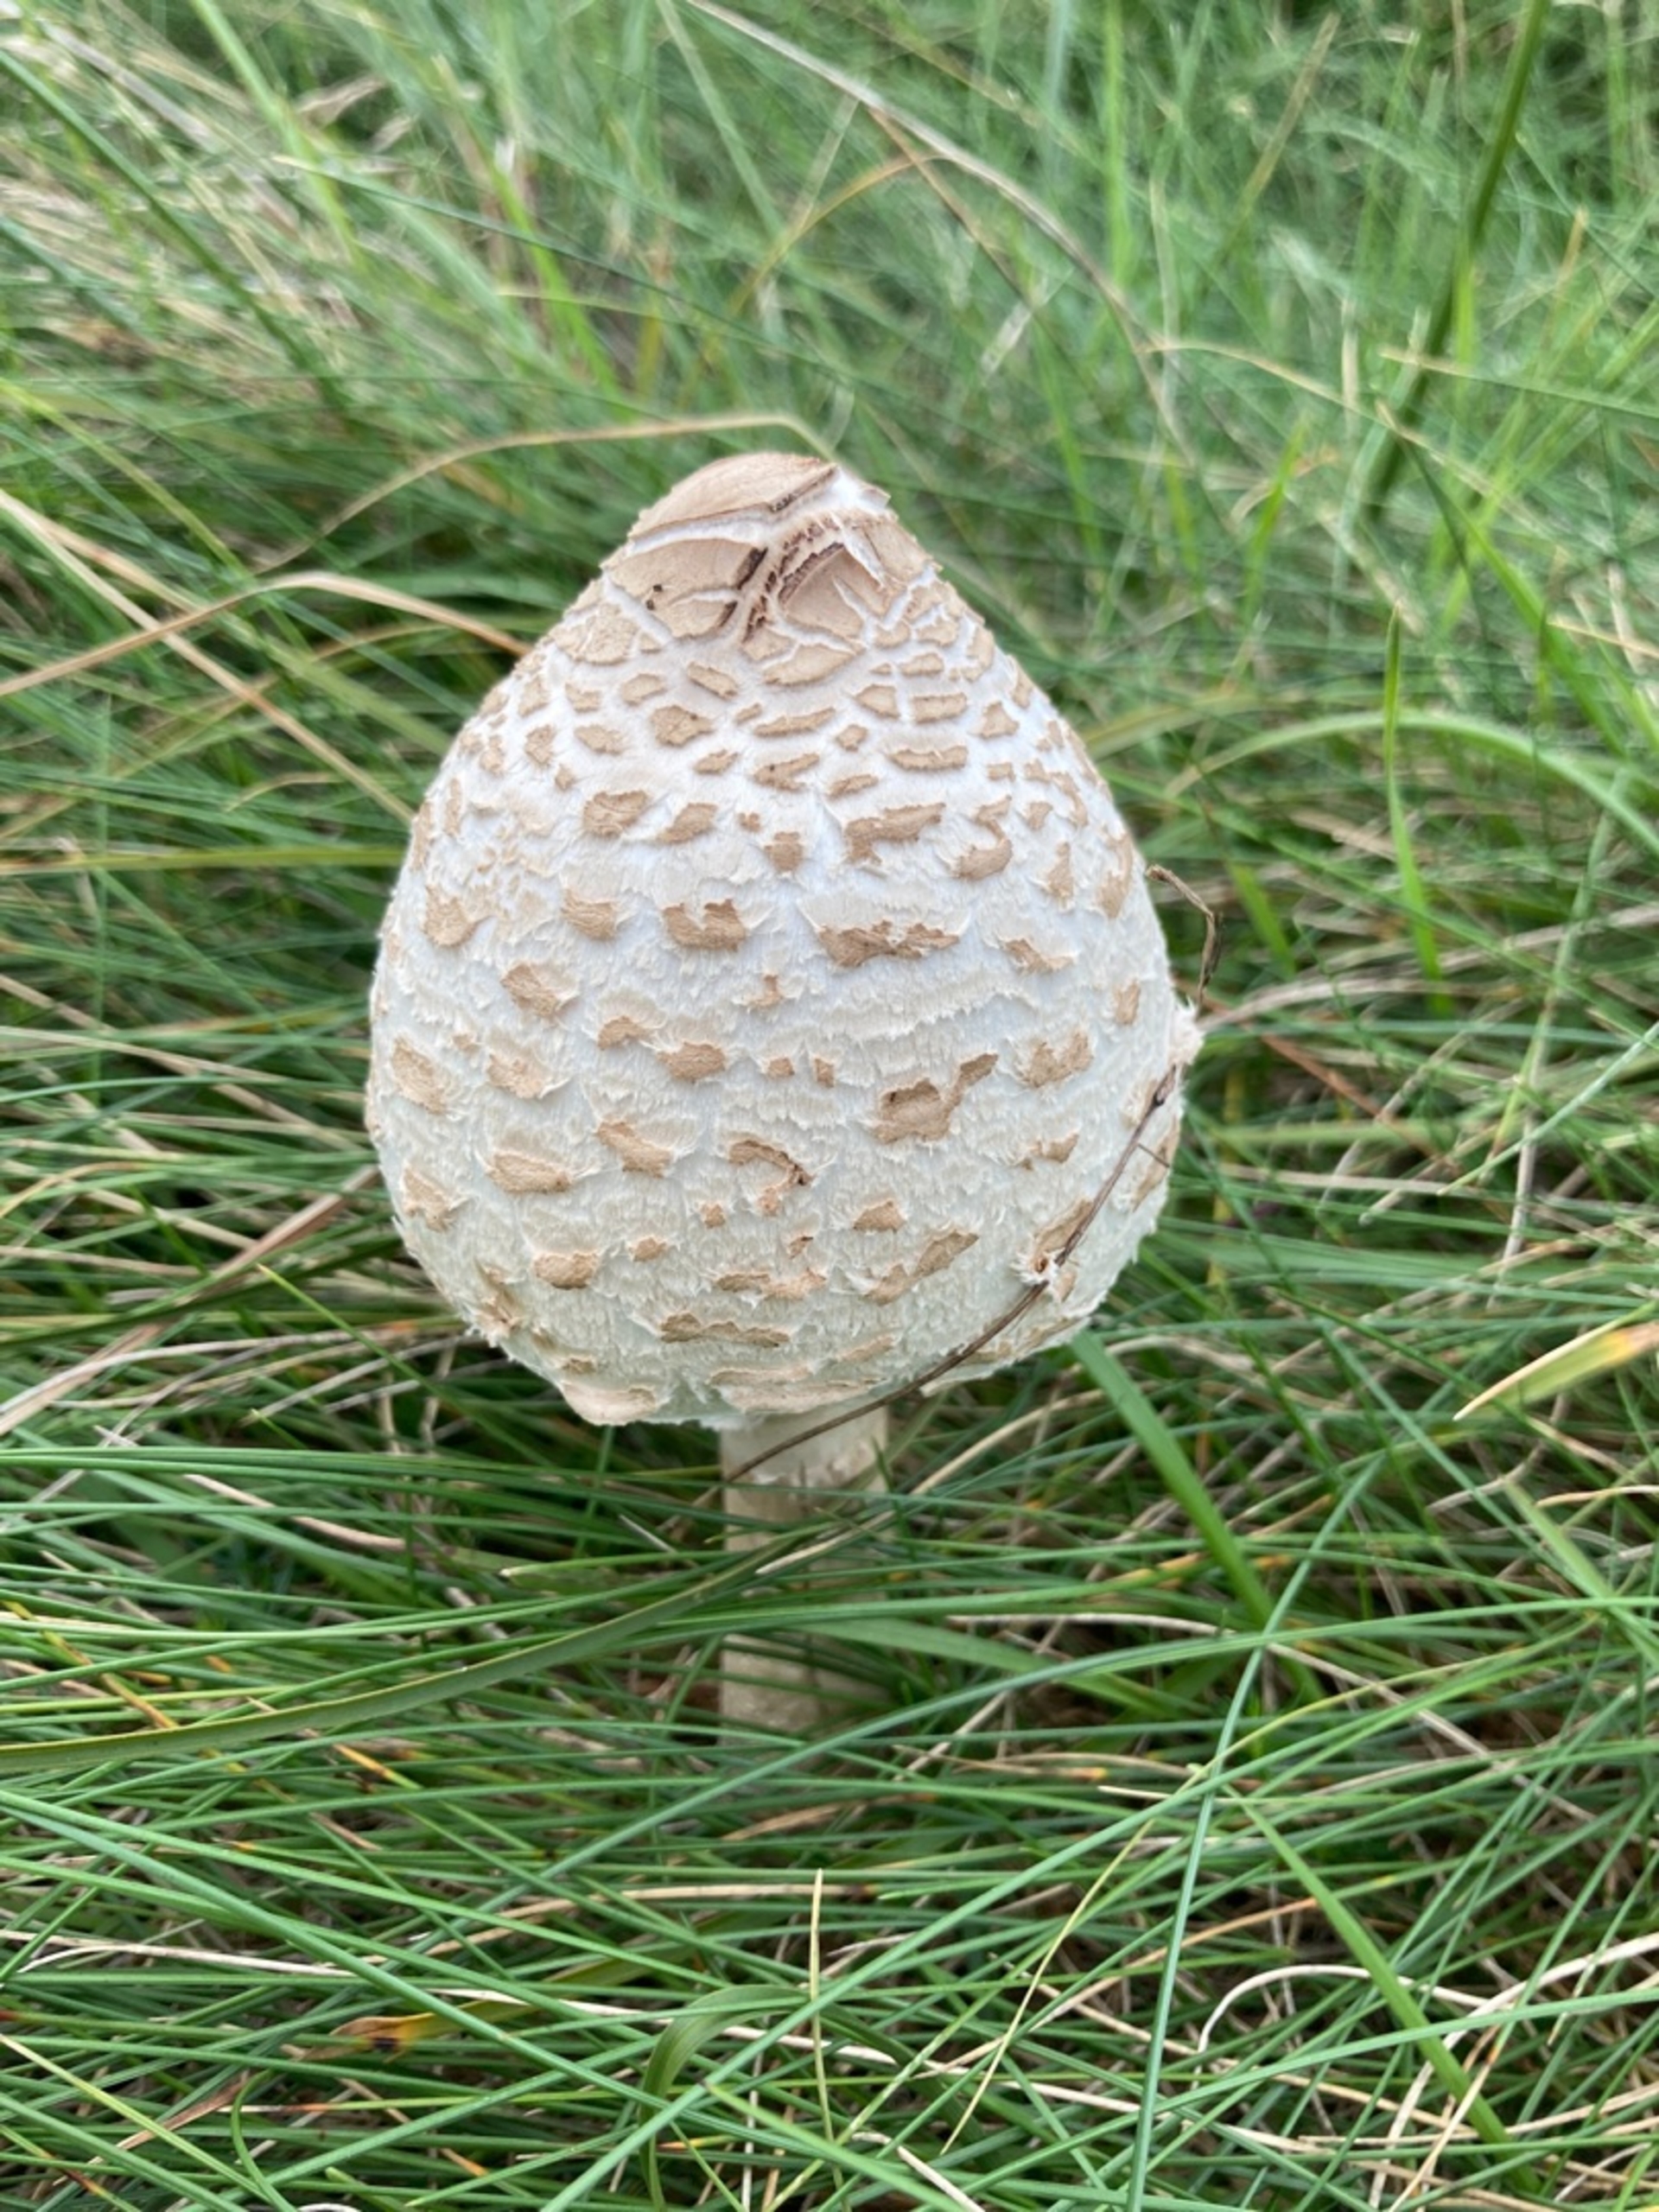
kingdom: Fungi
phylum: Basidiomycota
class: Agaricomycetes
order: Agaricales
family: Agaricaceae
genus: Macrolepiota
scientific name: Macrolepiota
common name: Kæmpeparasolhat
